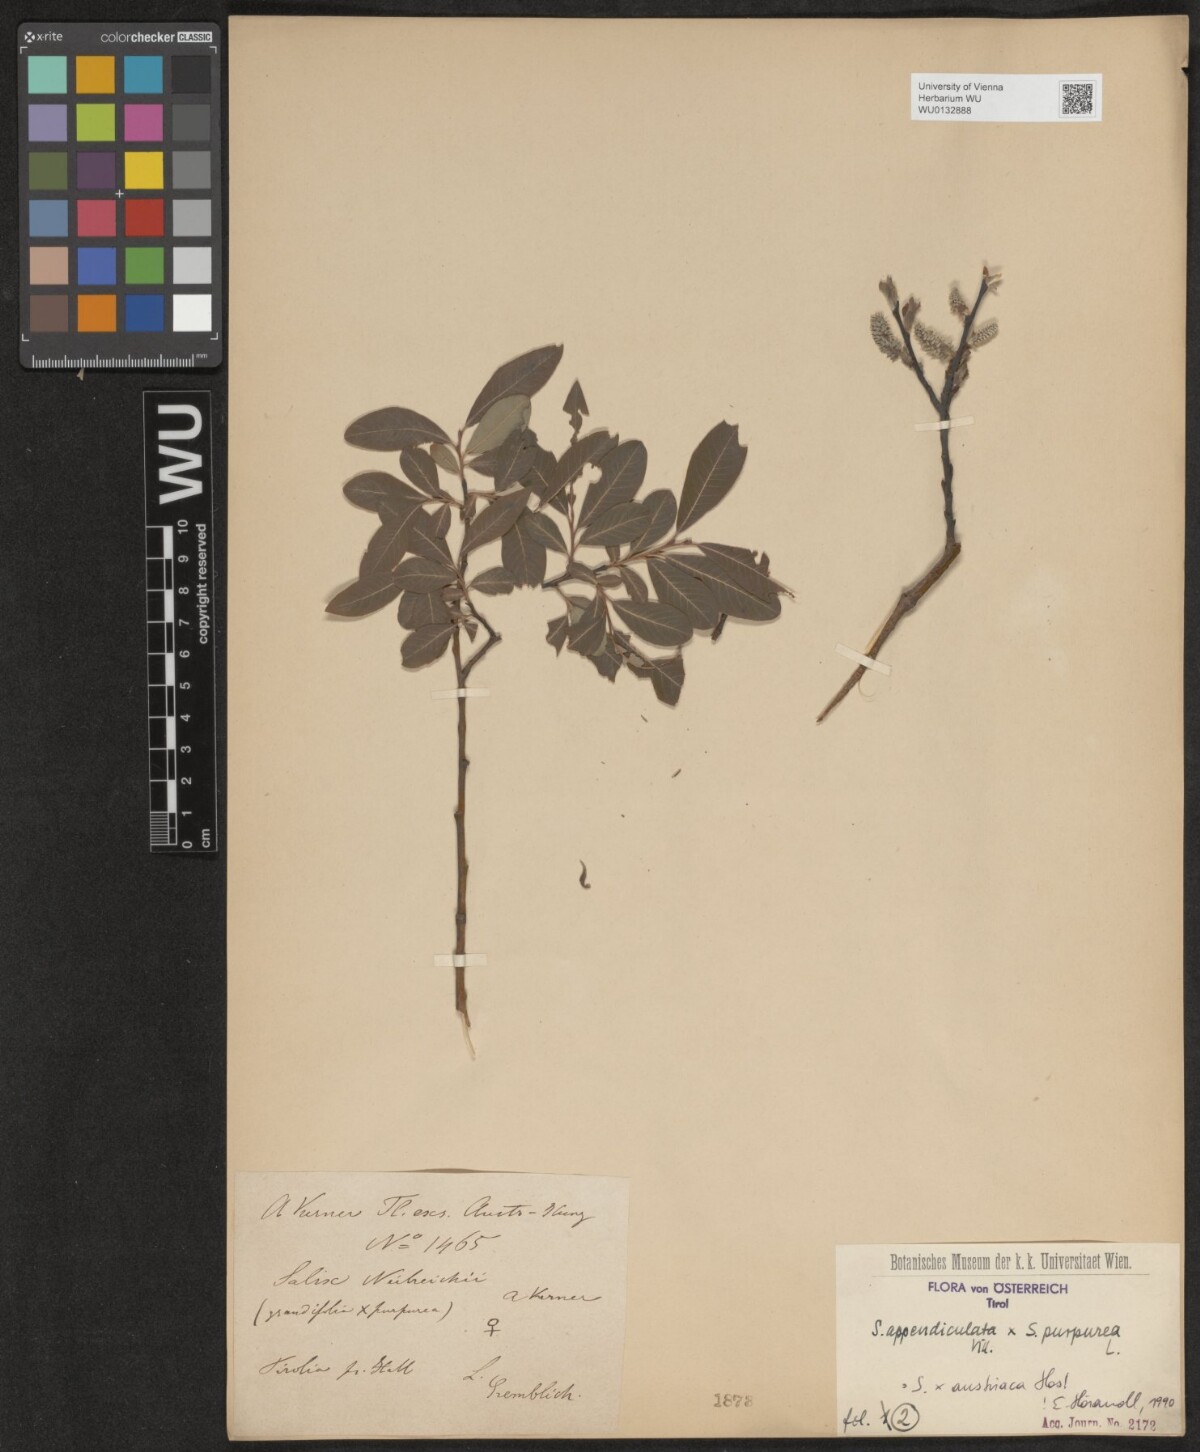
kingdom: Plantae
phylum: Tracheophyta
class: Magnoliopsida
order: Malpighiales
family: Salicaceae
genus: Salix
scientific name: Salix austriaca
